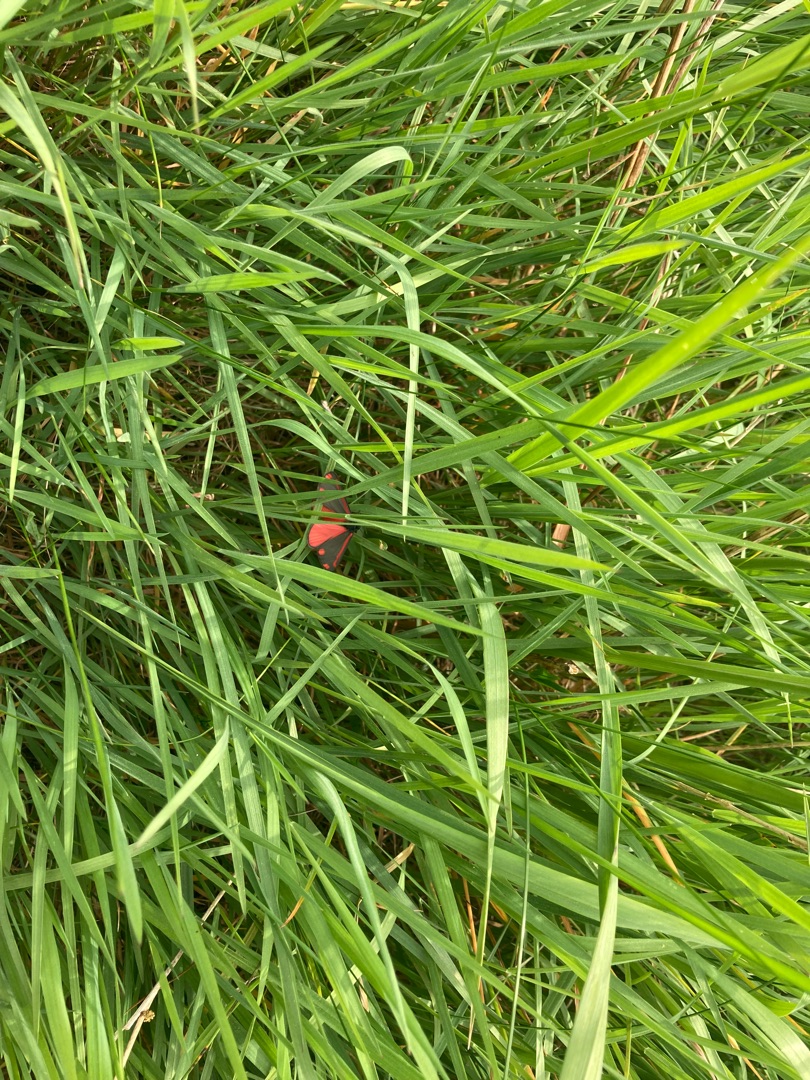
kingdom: Animalia
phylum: Arthropoda
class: Insecta
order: Lepidoptera
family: Erebidae
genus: Tyria
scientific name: Tyria jacobaeae
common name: Blodplet
